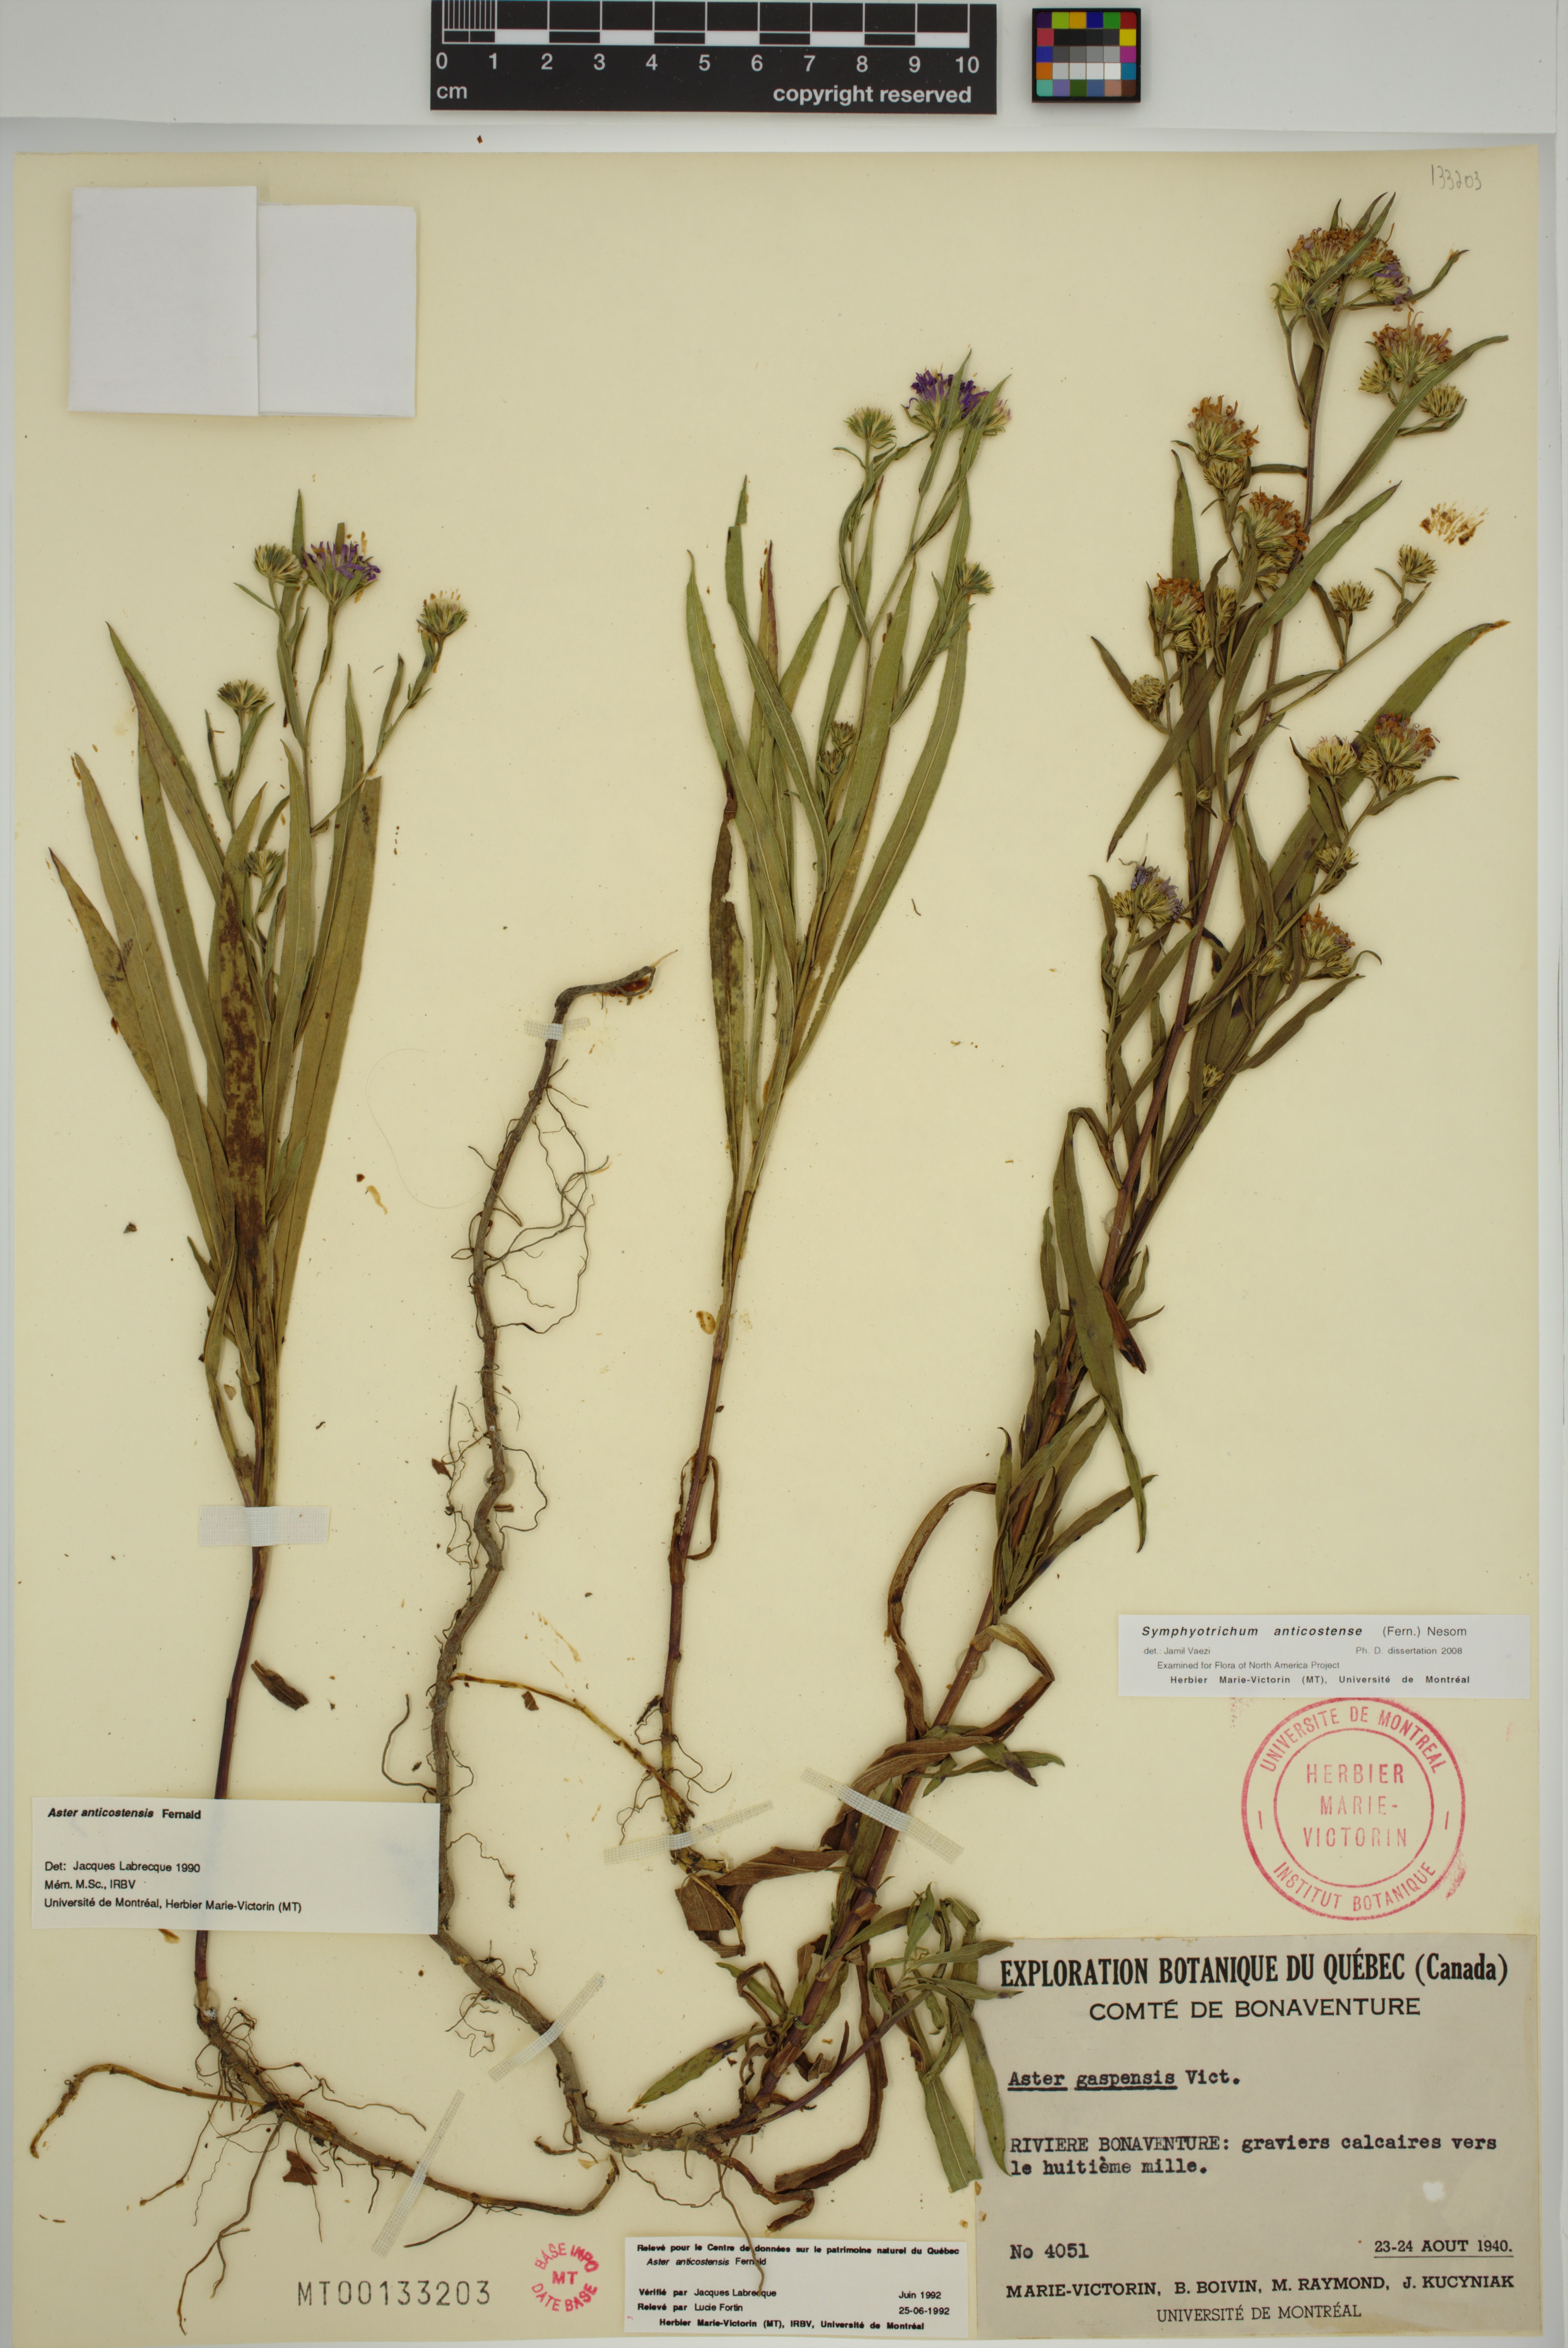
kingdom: Plantae
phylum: Tracheophyta
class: Magnoliopsida
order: Asterales
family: Asteraceae
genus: Symphyotrichum
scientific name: Symphyotrichum anticostense
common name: Anticosti island aster
